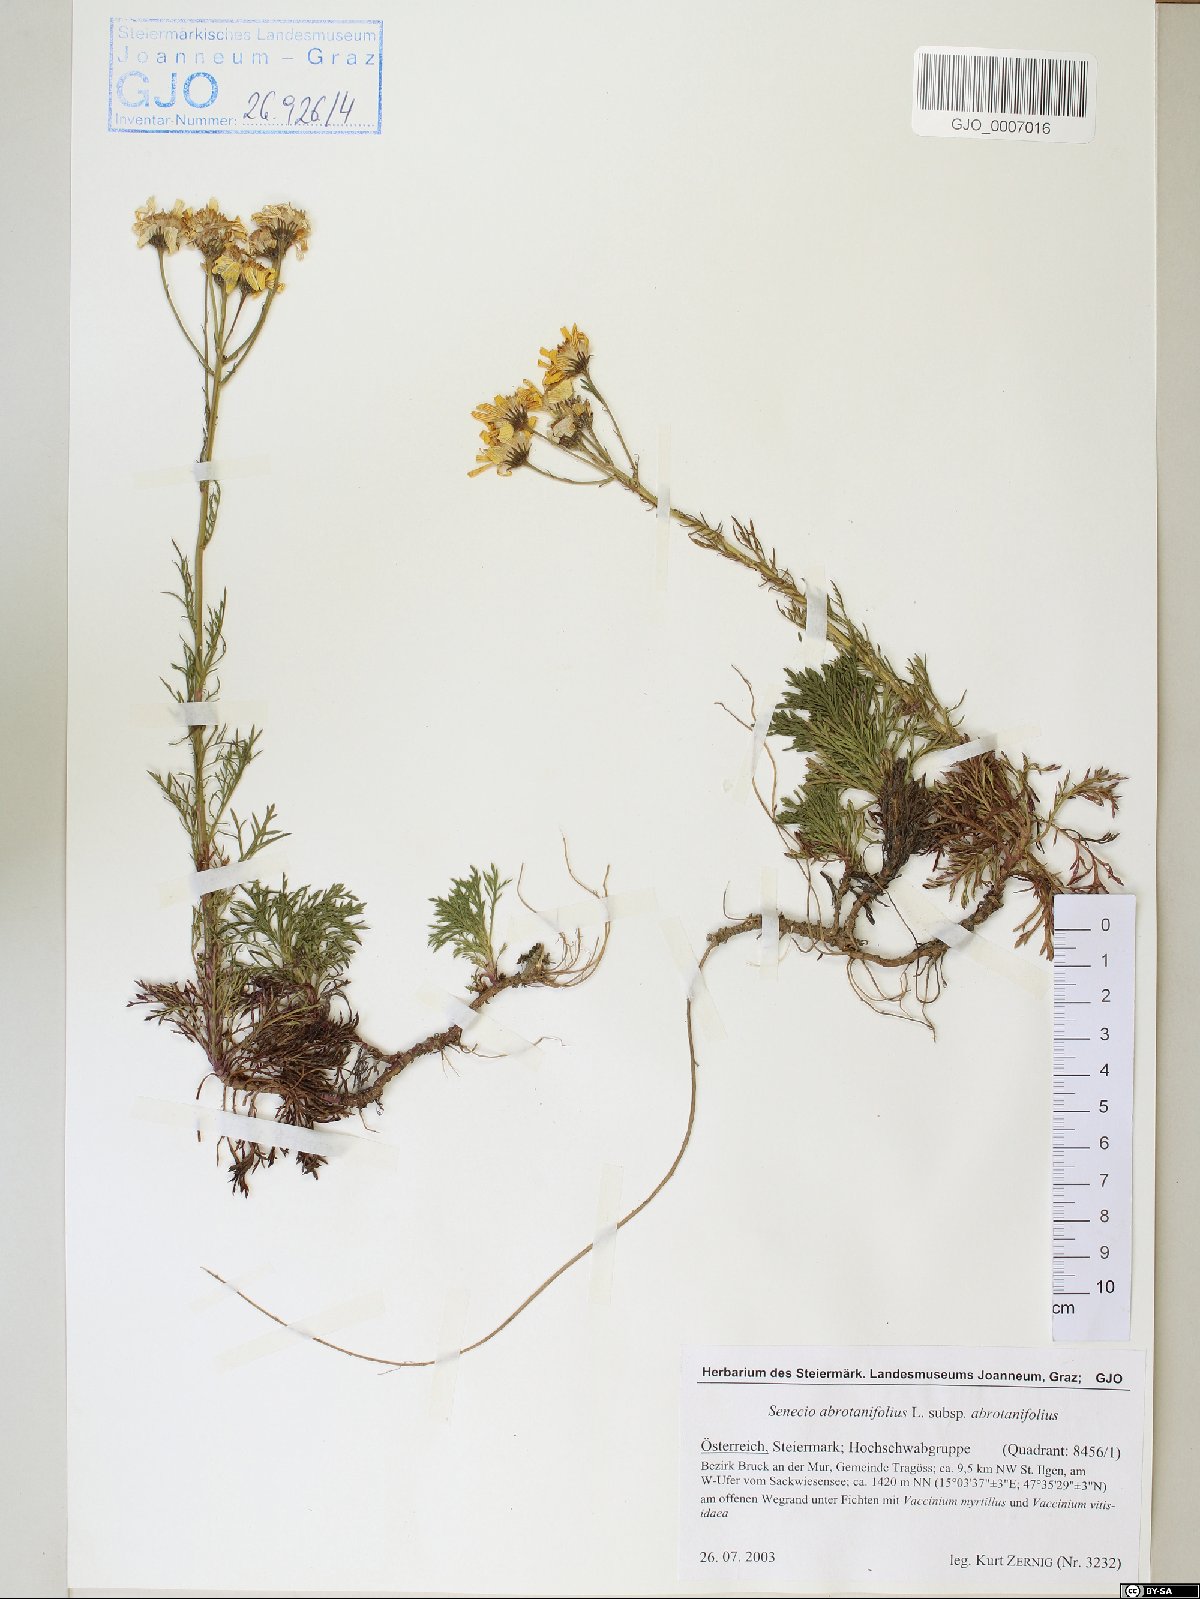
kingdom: Plantae
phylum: Tracheophyta
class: Magnoliopsida
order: Asterales
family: Asteraceae
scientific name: Asteraceae
